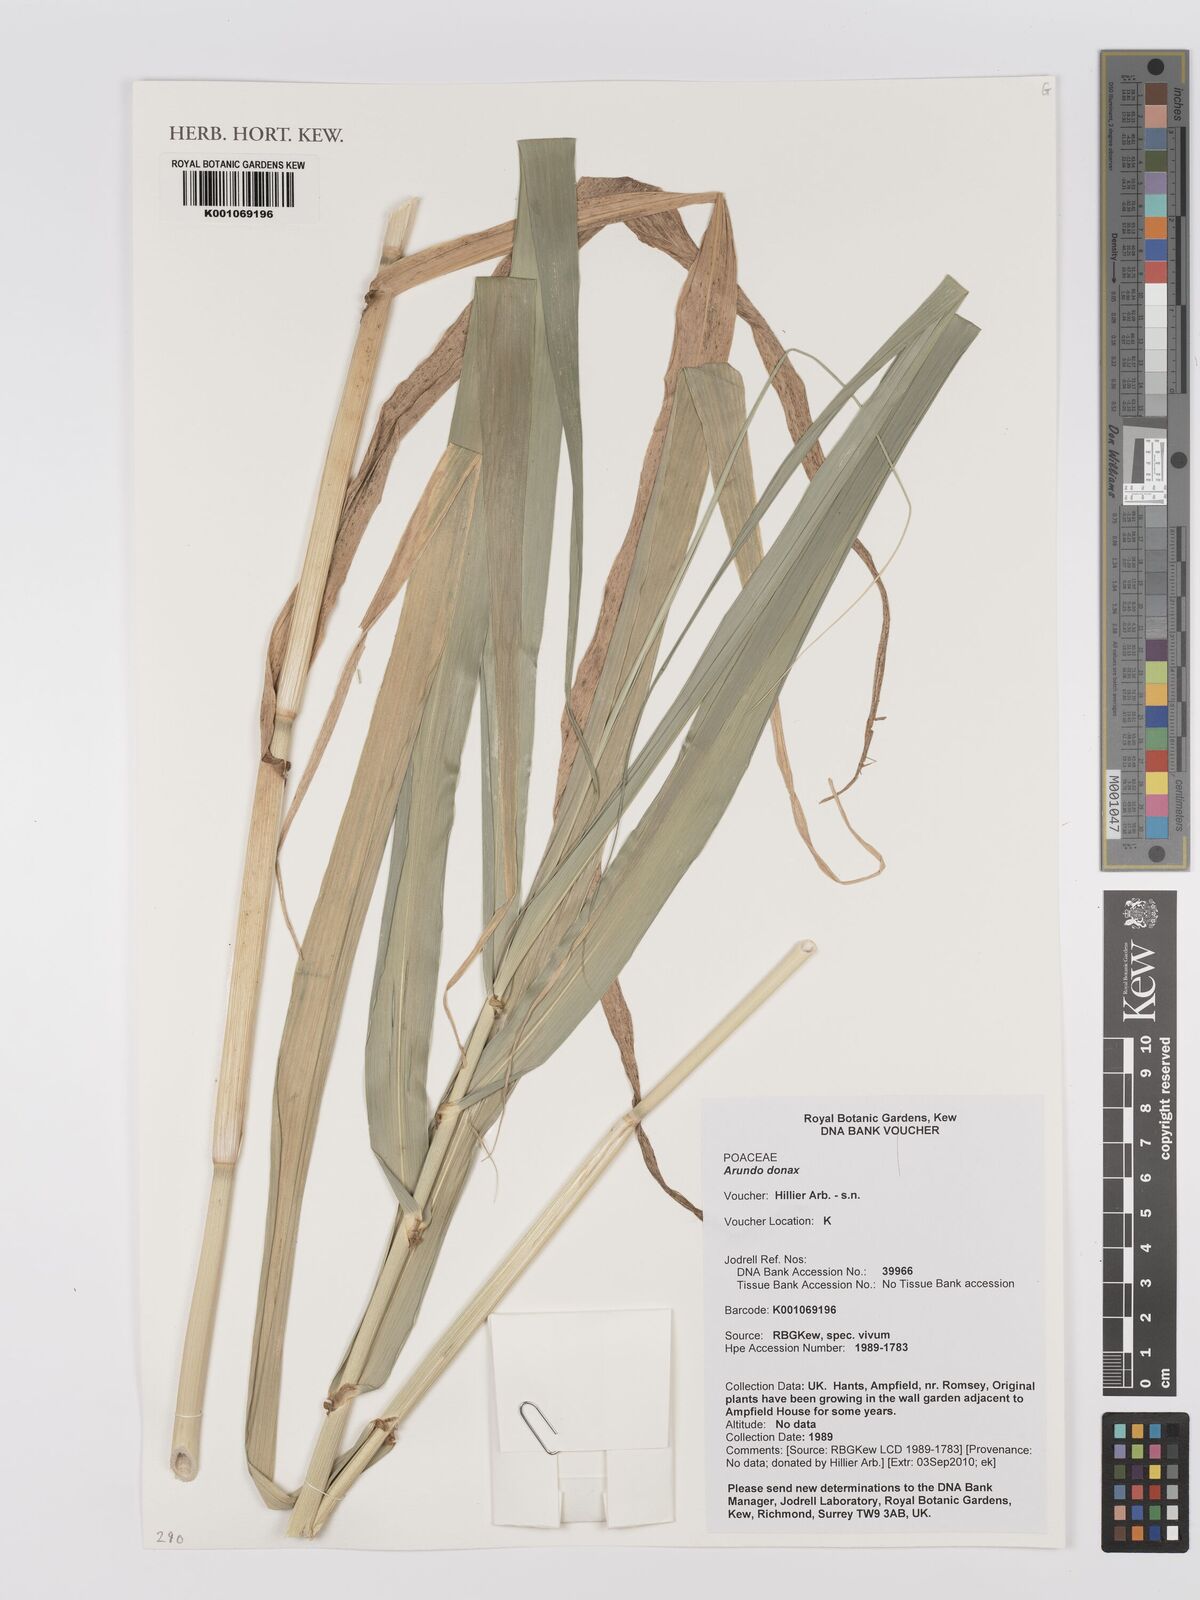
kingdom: Plantae
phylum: Tracheophyta
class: Liliopsida
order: Poales
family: Poaceae
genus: Arundo
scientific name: Arundo donax
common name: Giant reed
